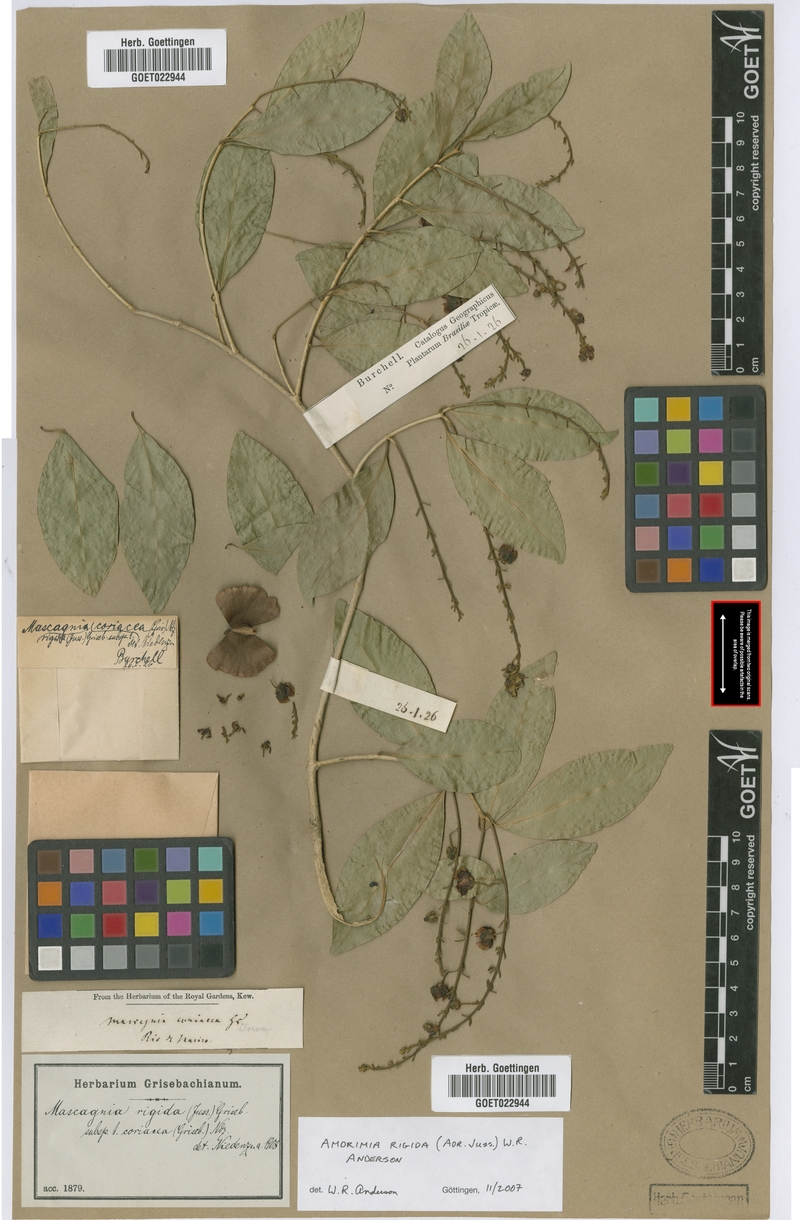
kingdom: Plantae
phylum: Tracheophyta
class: Magnoliopsida
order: Malpighiales
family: Malpighiaceae
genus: Amorimia
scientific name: Amorimia rigida
